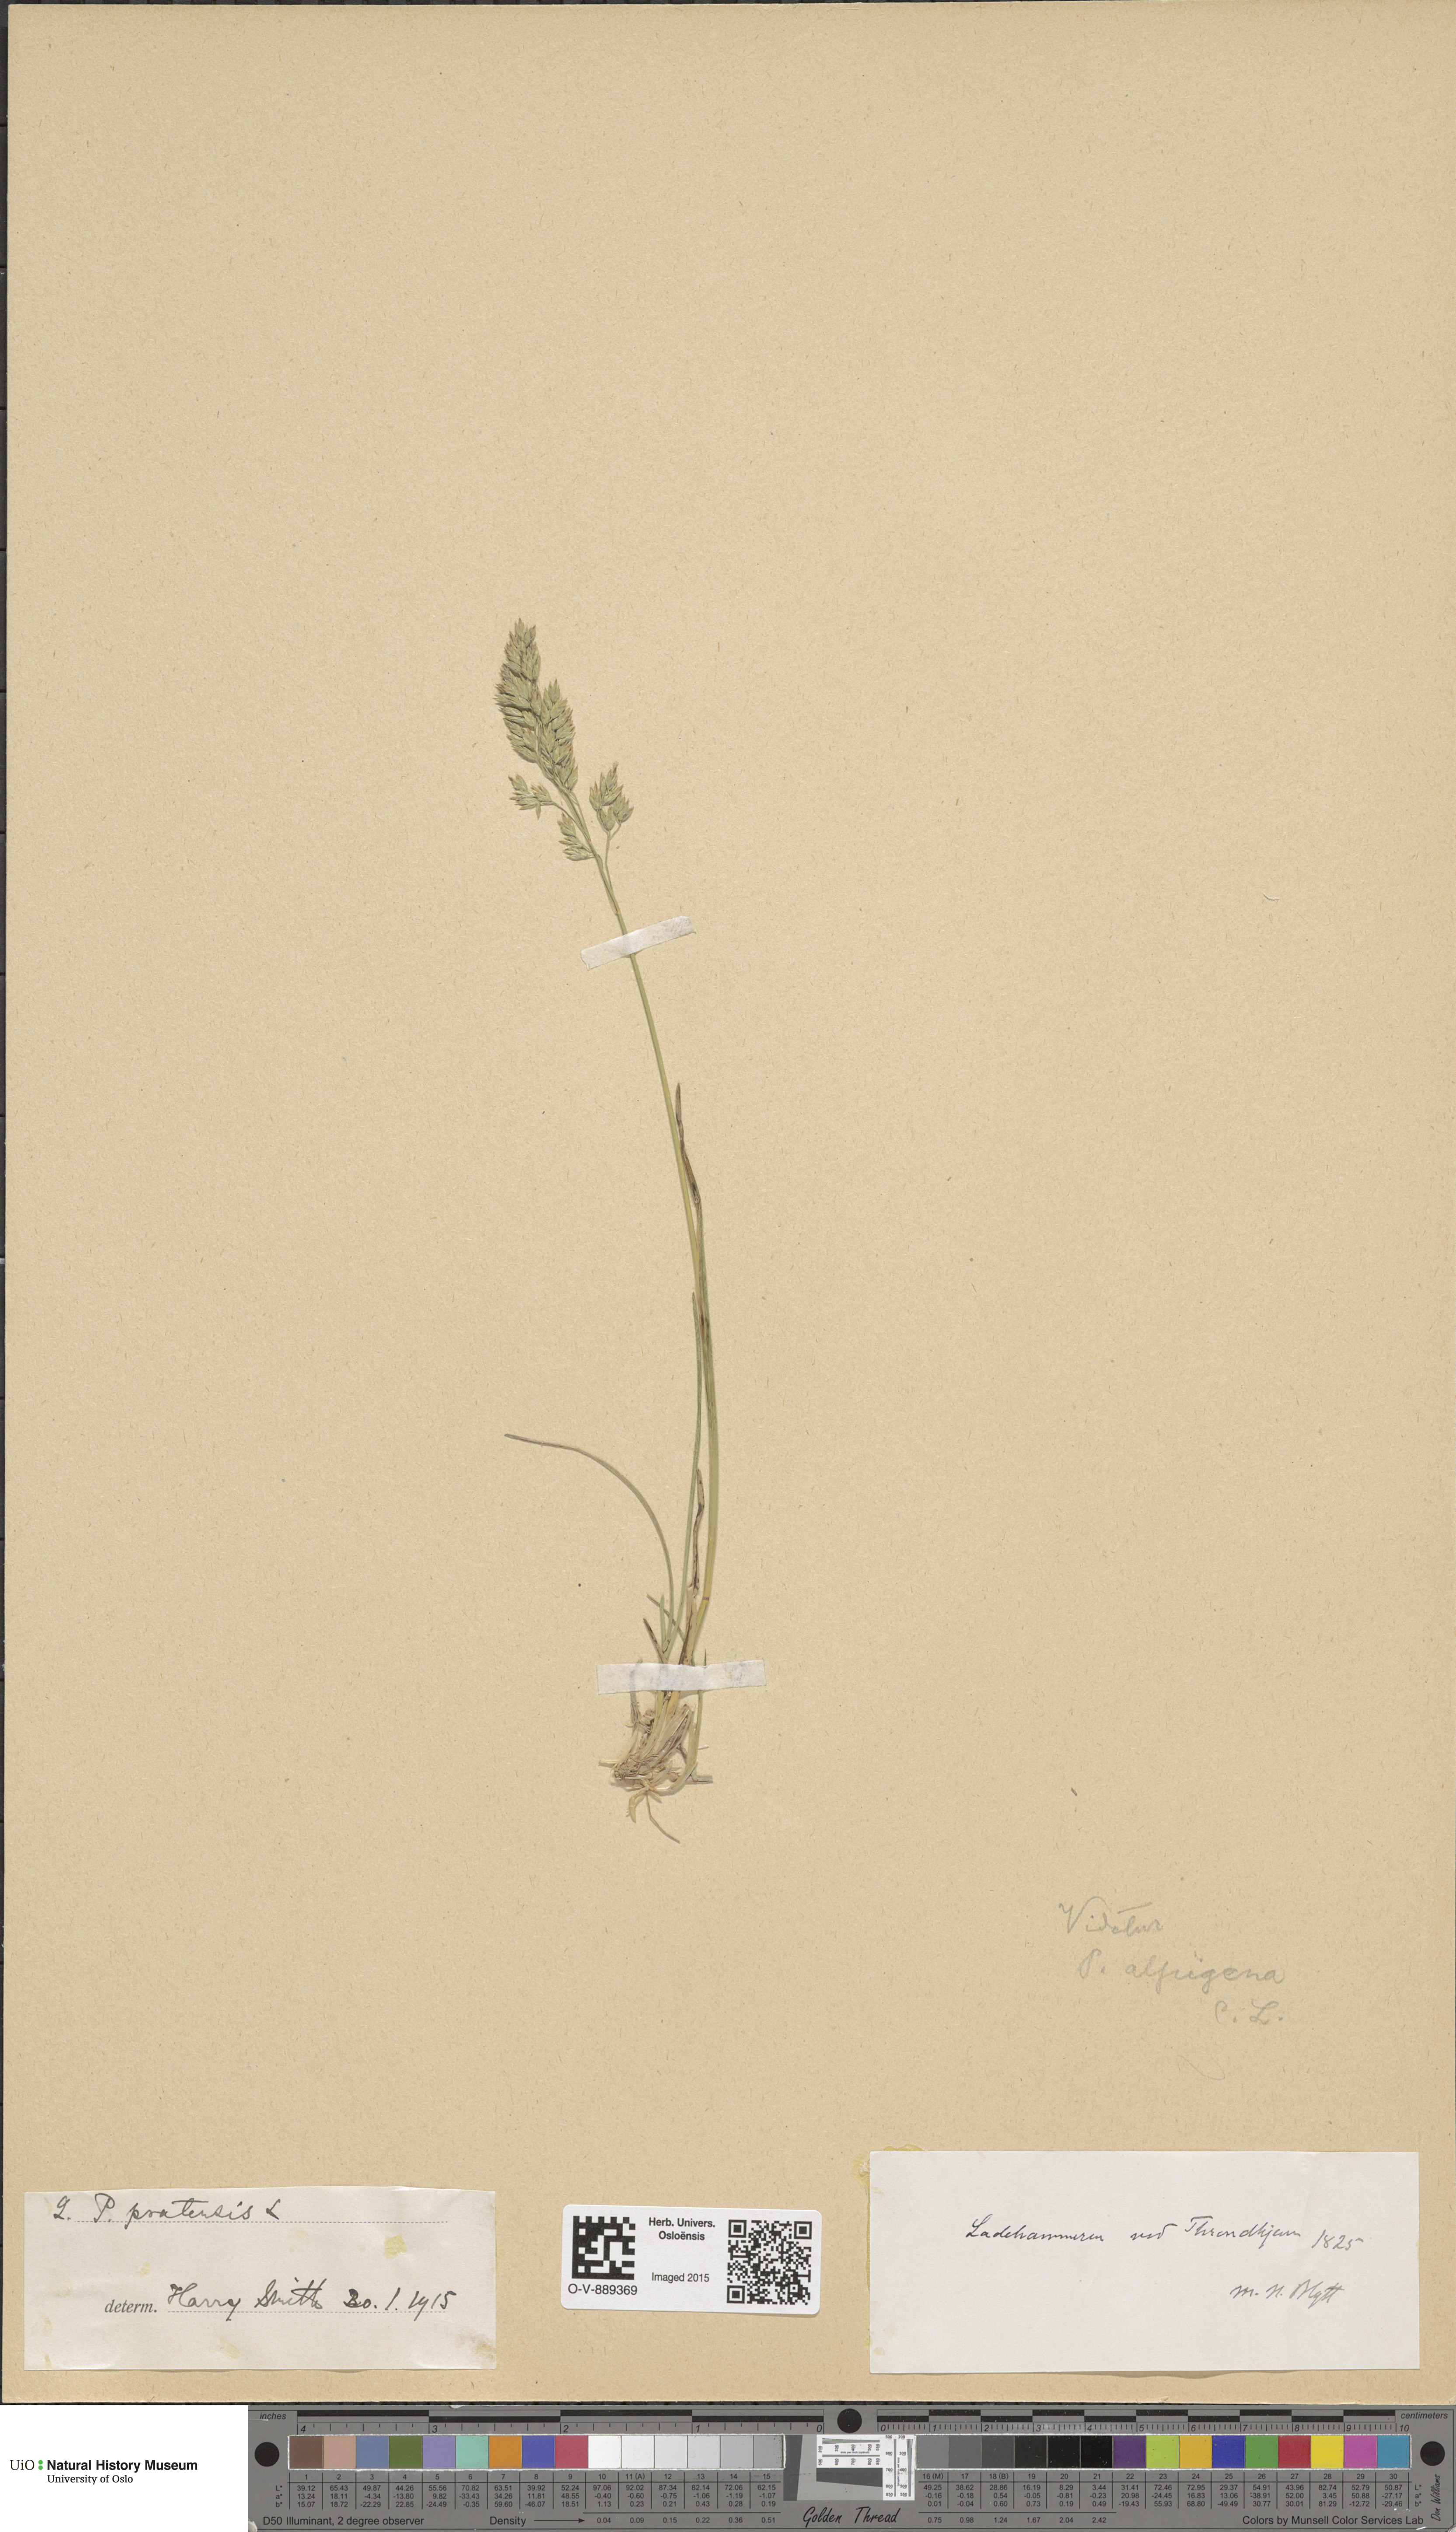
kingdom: Plantae
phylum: Tracheophyta
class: Liliopsida
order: Poales
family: Poaceae
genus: Poa
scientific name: Poa alpigena
